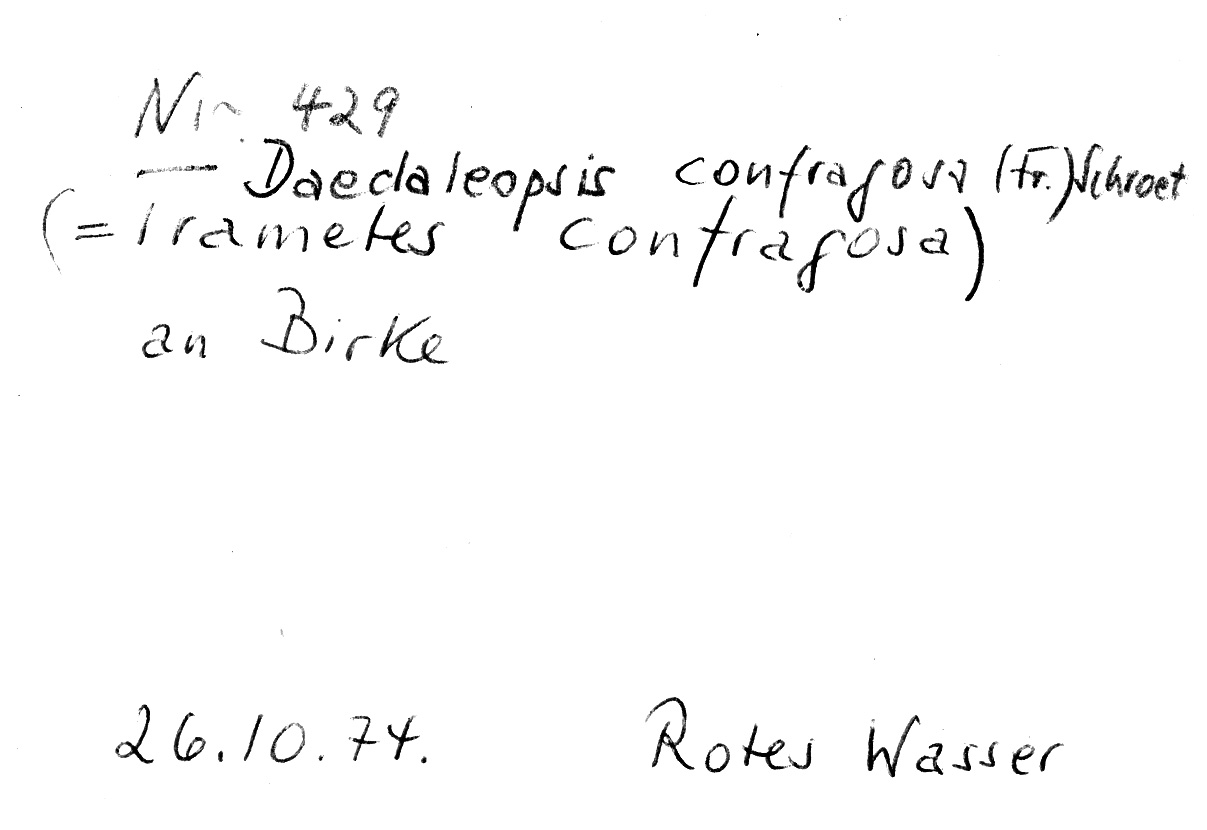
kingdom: Plantae
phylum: Tracheophyta
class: Magnoliopsida
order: Fagales
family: Betulaceae
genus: Betula
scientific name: Betula
